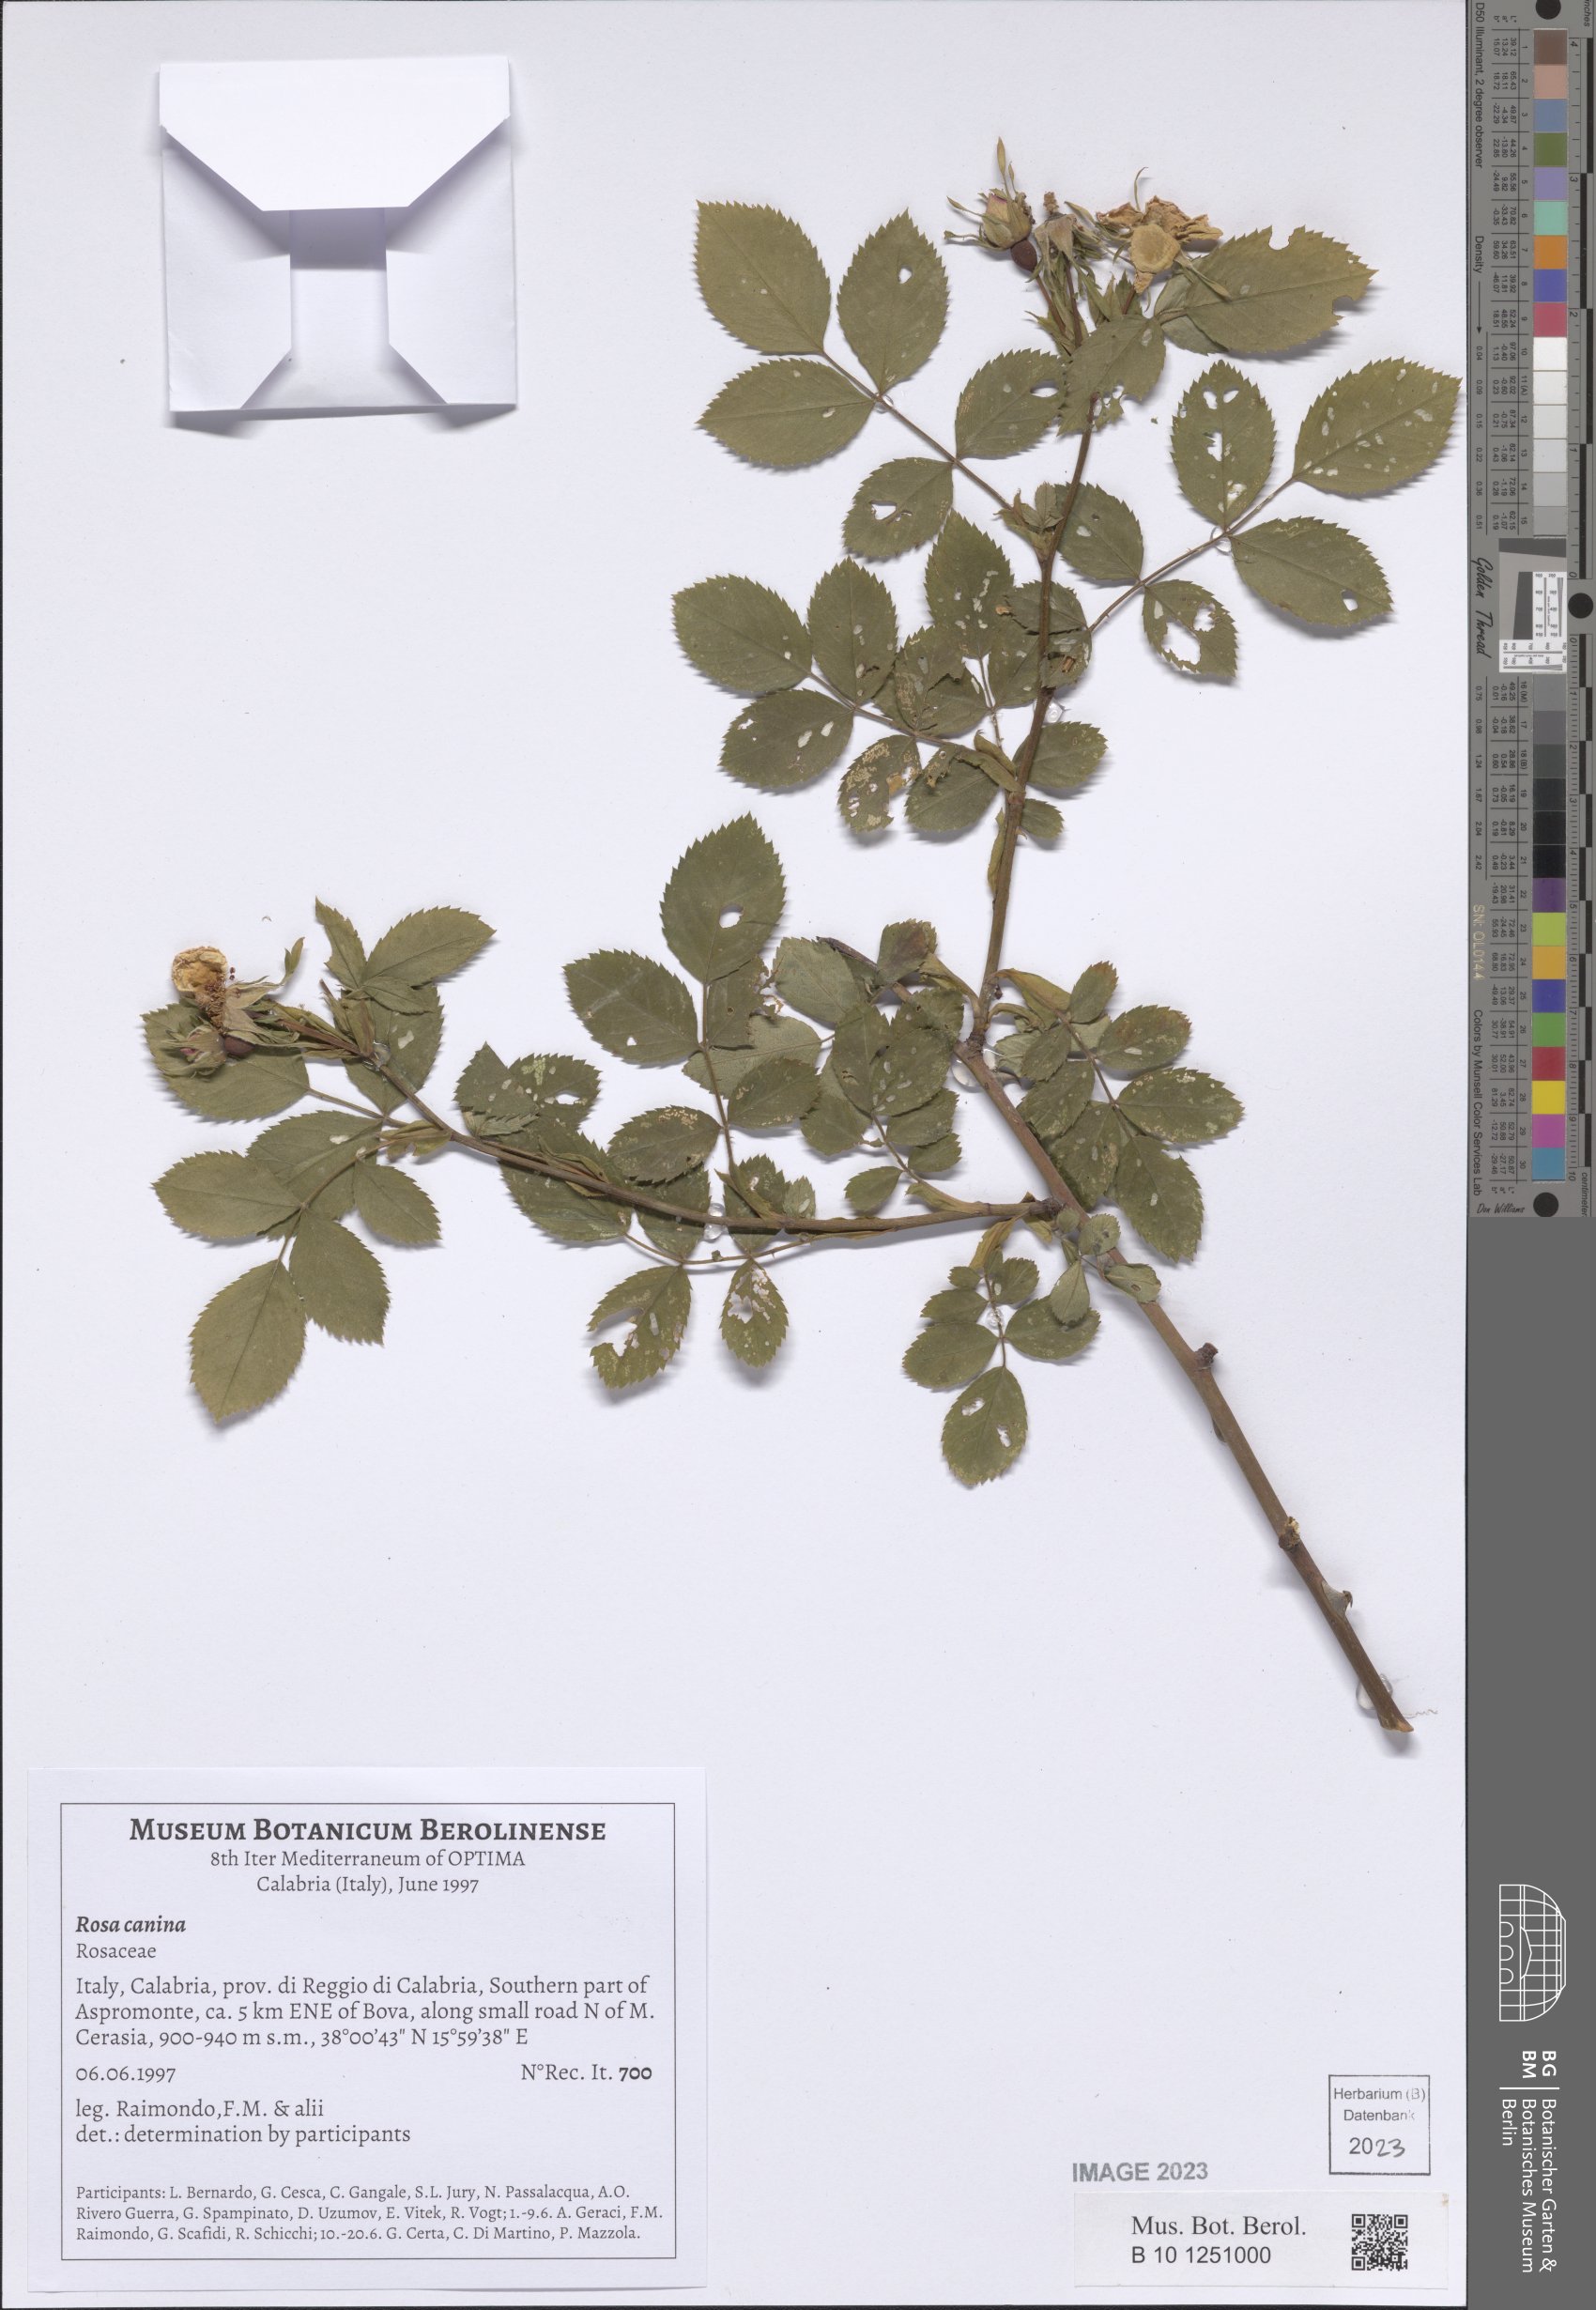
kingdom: Plantae
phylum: Tracheophyta
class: Magnoliopsida
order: Rosales
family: Rosaceae
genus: Rosa
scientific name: Rosa canina
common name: Dog rose
